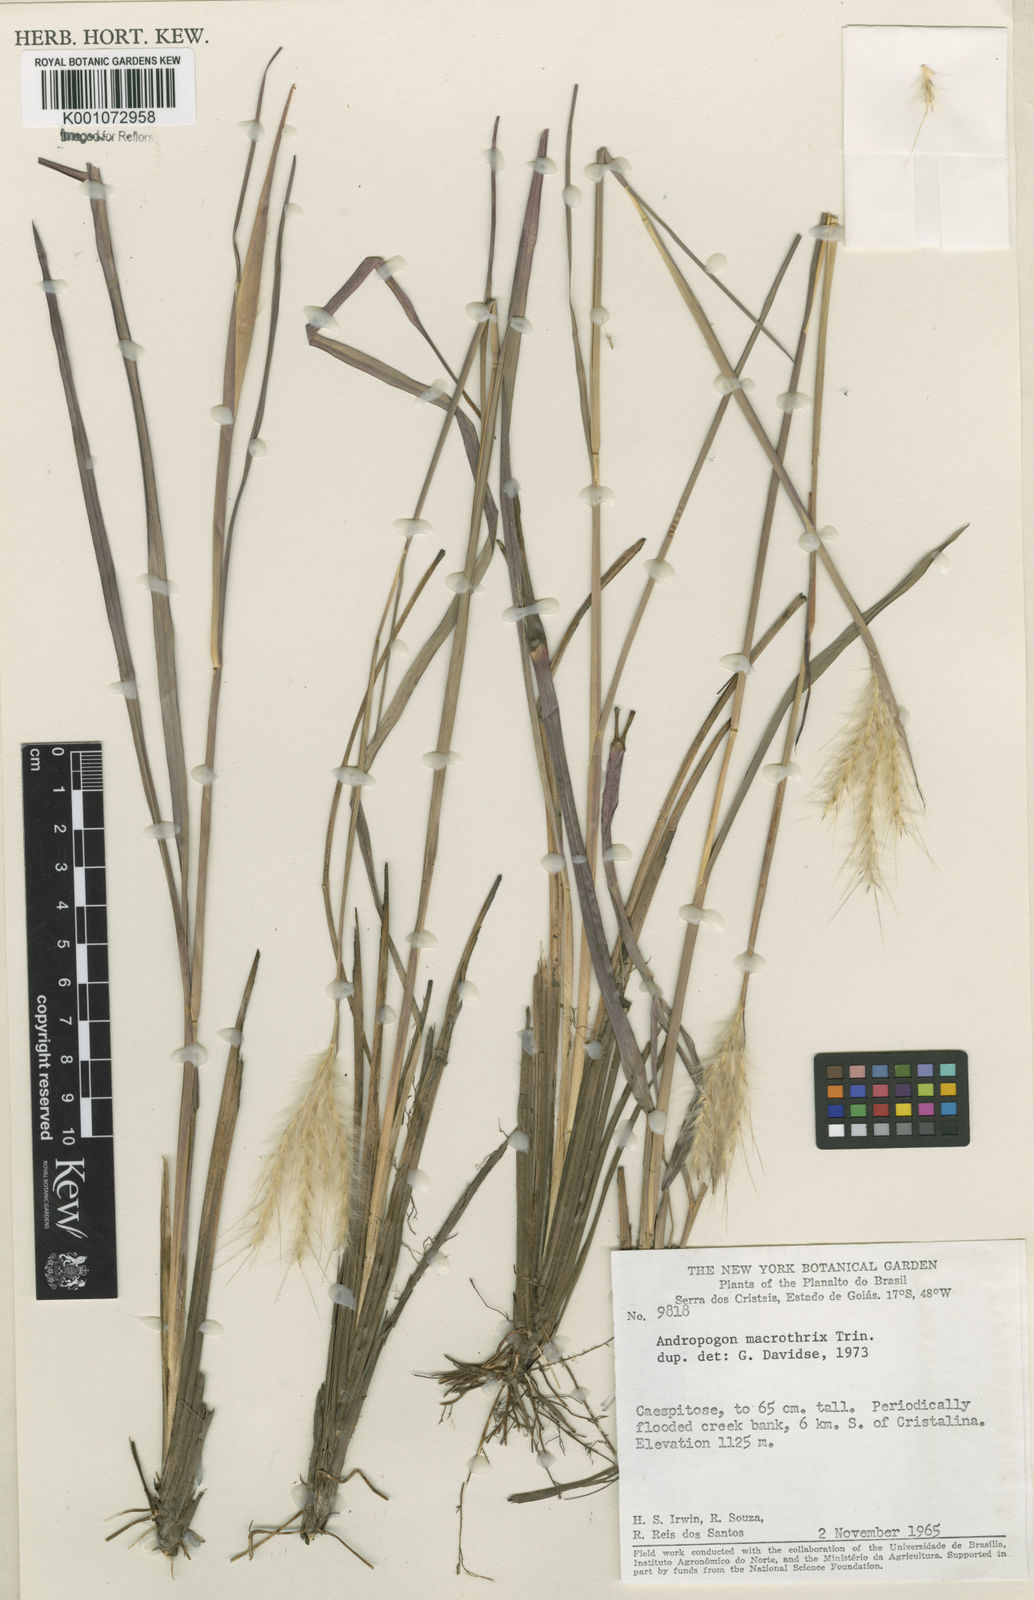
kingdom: Plantae
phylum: Tracheophyta
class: Liliopsida
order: Poales
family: Poaceae
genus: Andropogon
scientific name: Andropogon macrothrix
